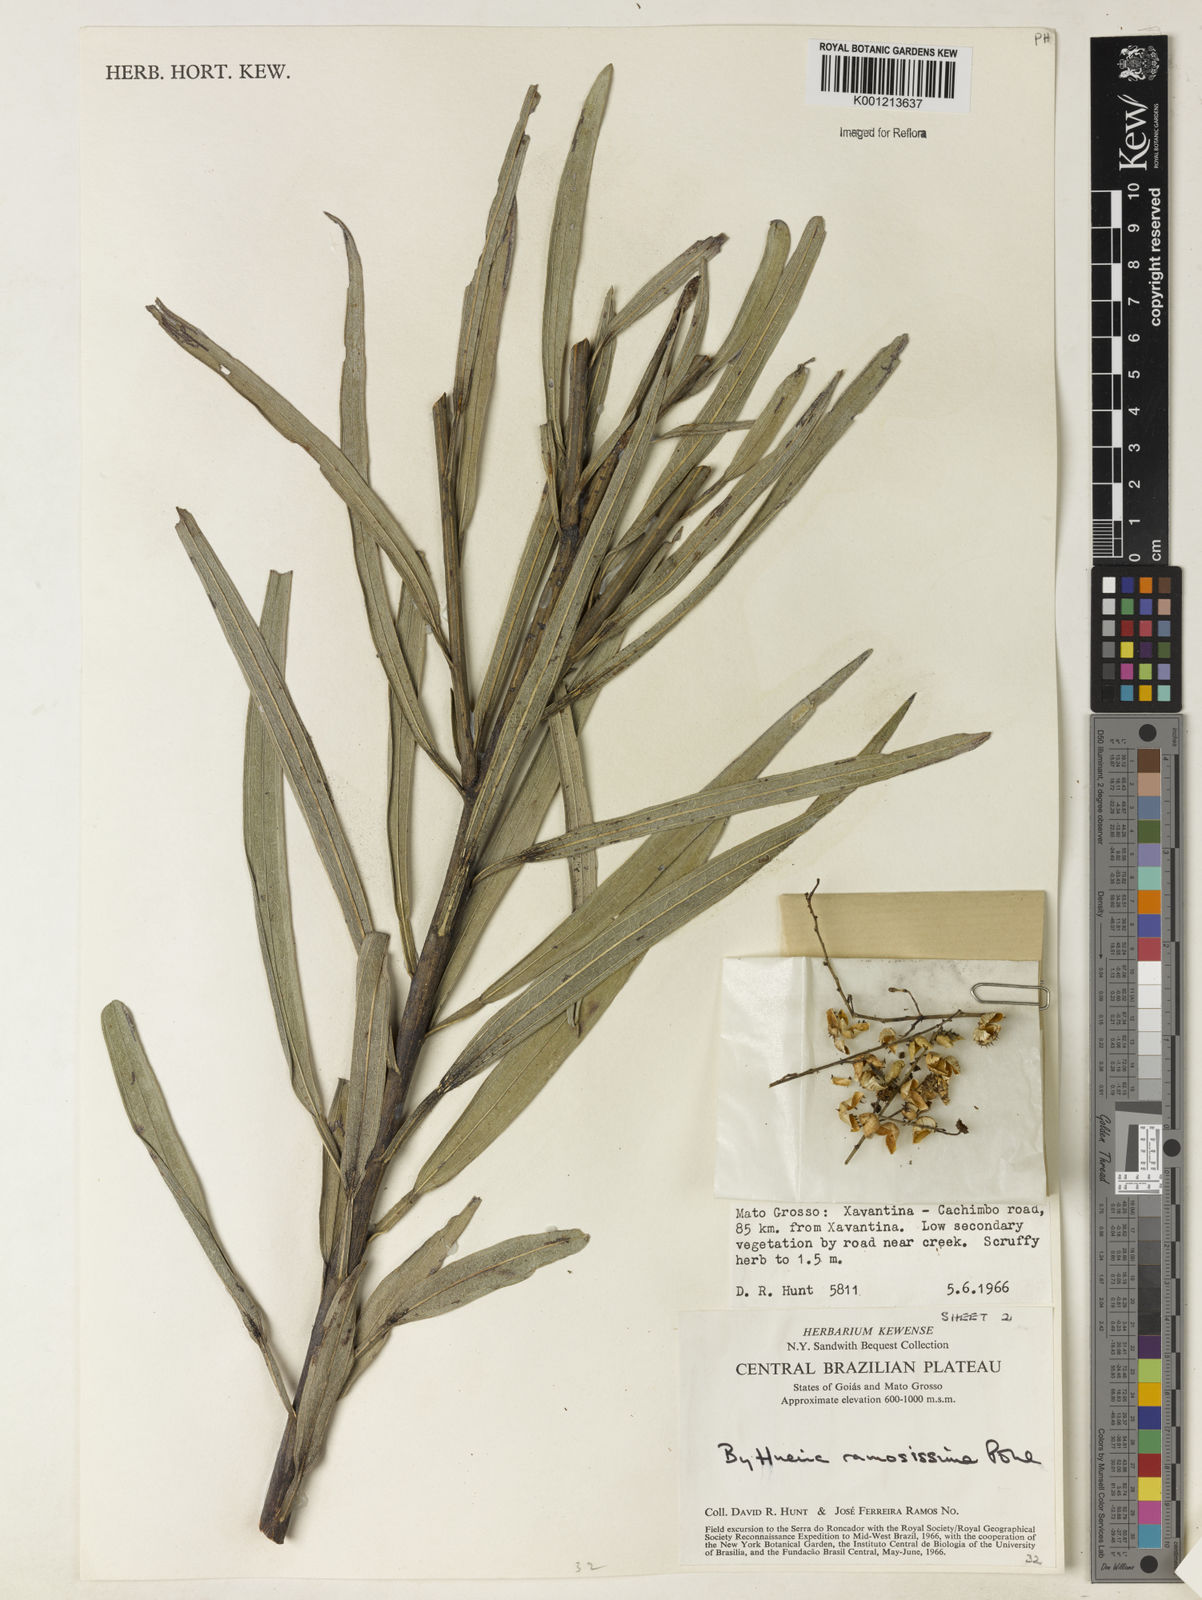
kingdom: Plantae
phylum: Tracheophyta
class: Magnoliopsida
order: Malvales
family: Malvaceae
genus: Byttneria
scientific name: Byttneria ramosissima
